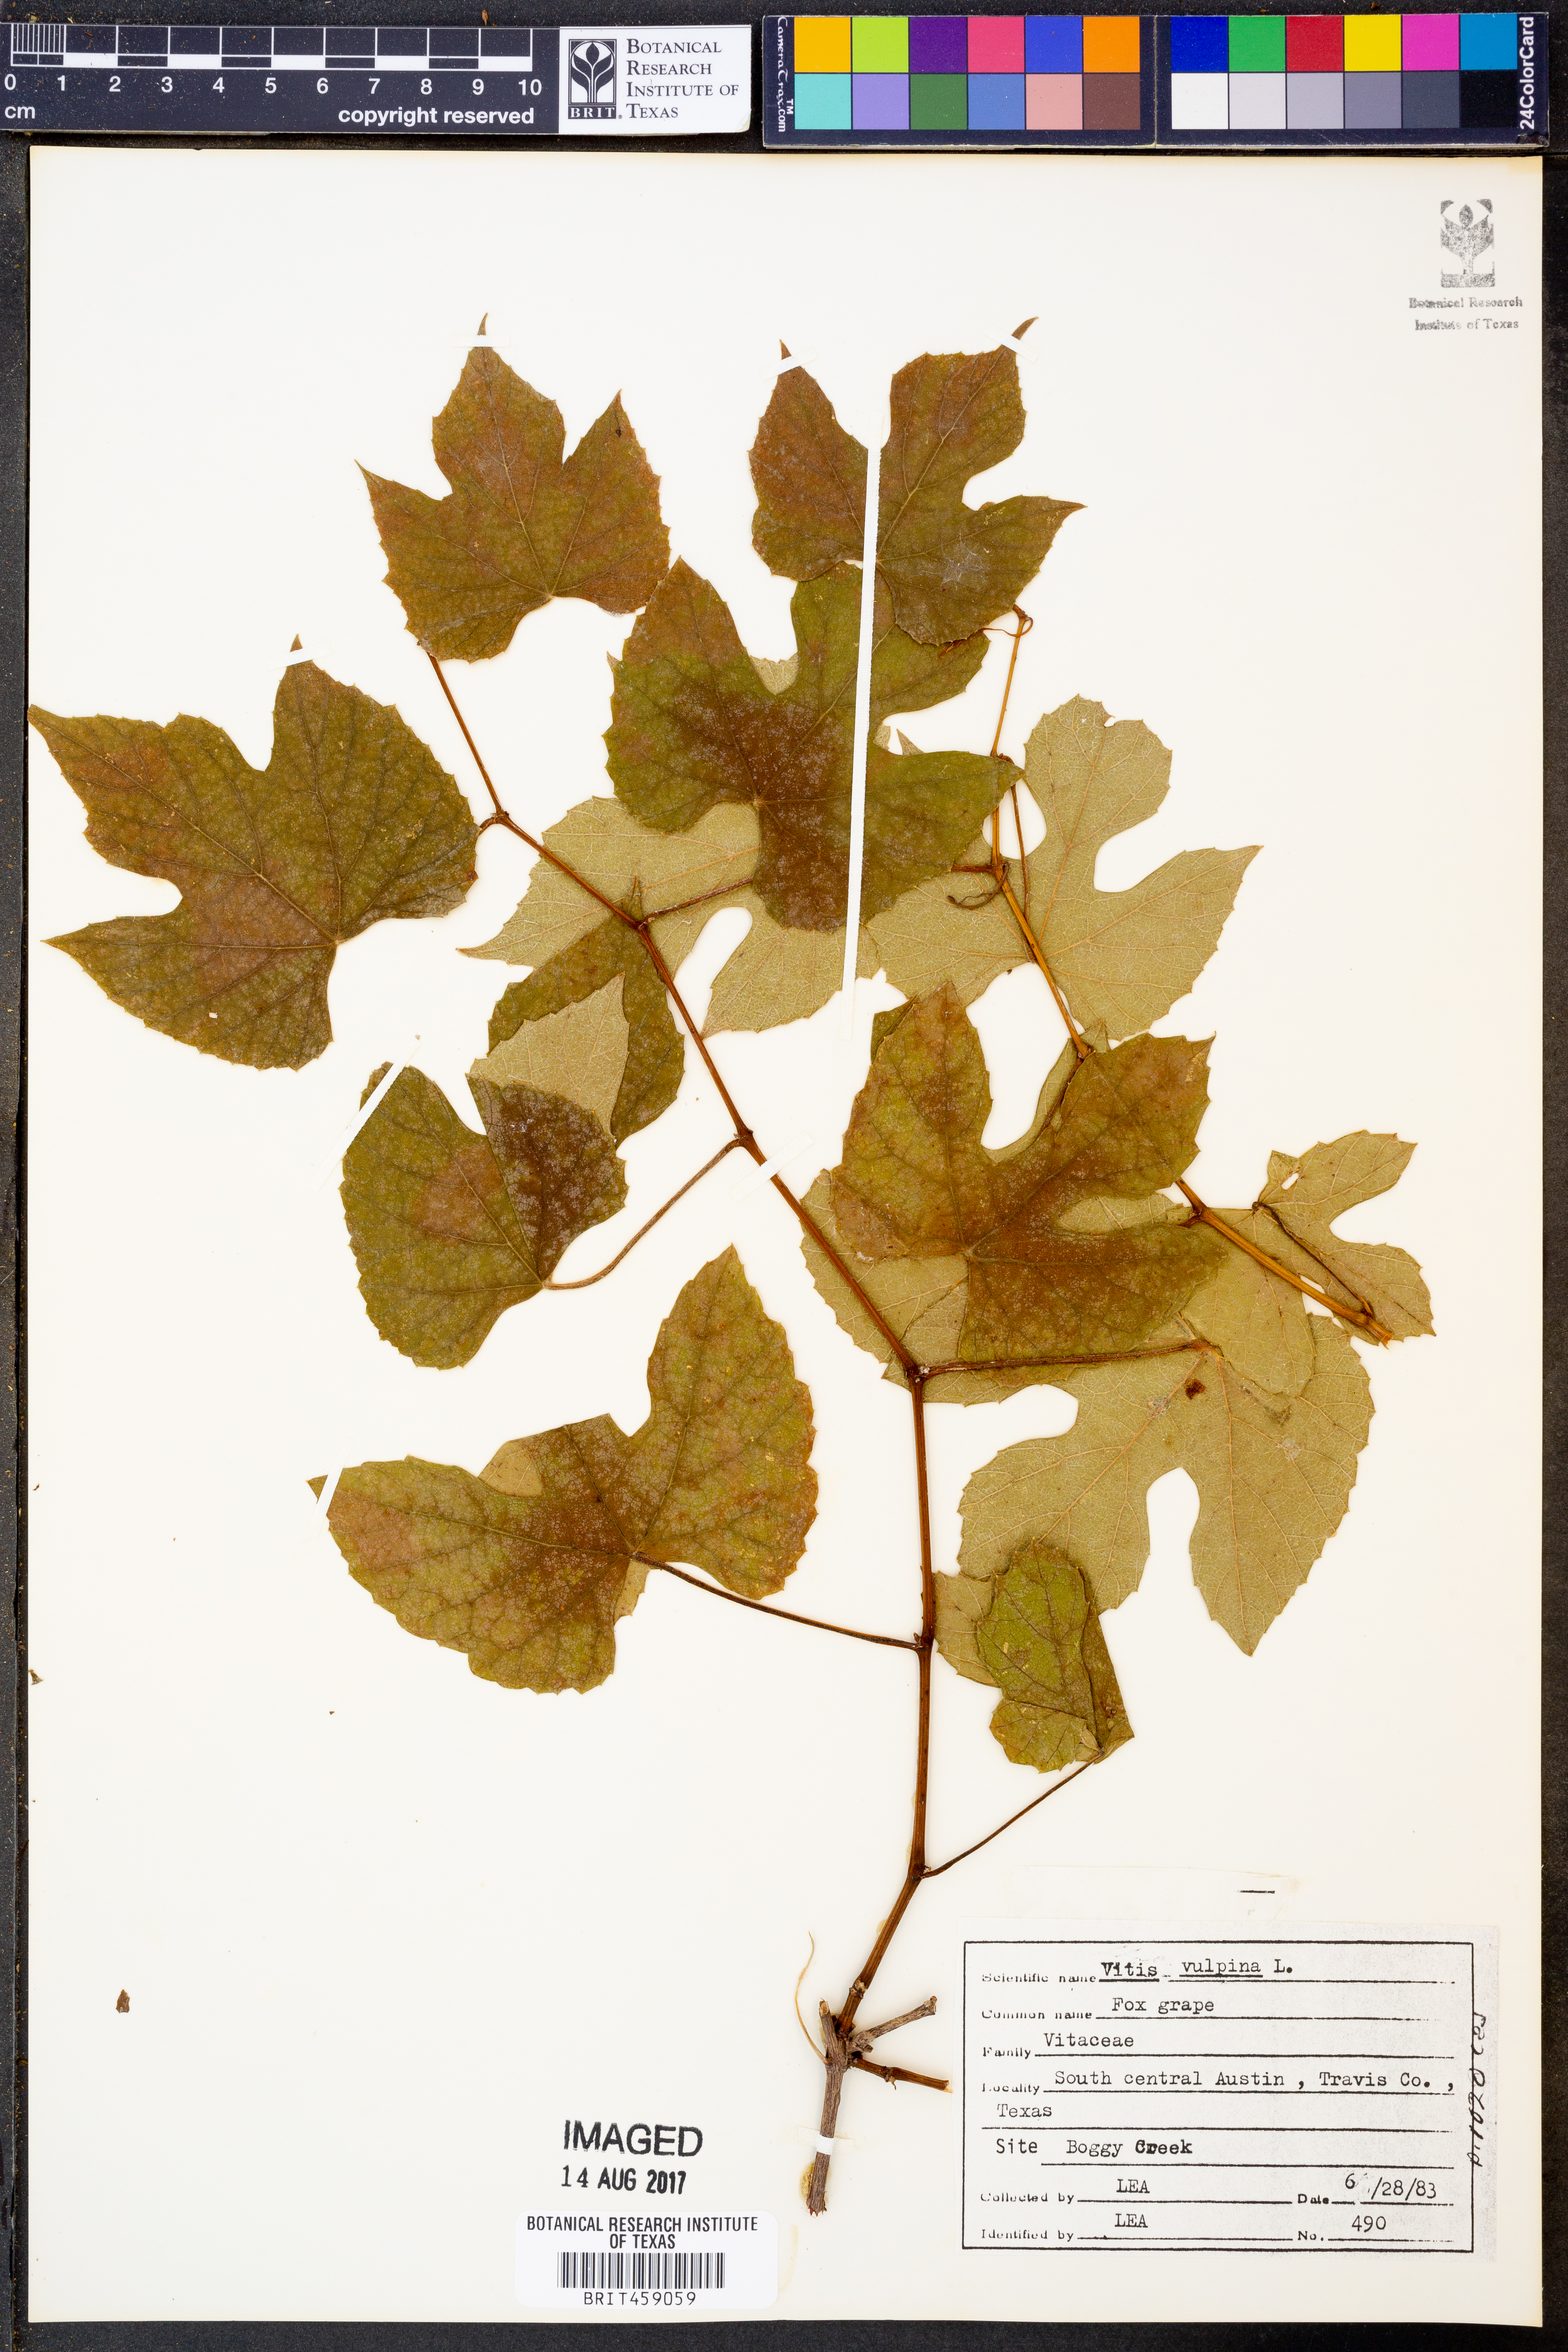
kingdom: Plantae
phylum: Tracheophyta
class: Magnoliopsida
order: Vitales
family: Vitaceae
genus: Vitis
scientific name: Vitis vulpina
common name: Frost grape
